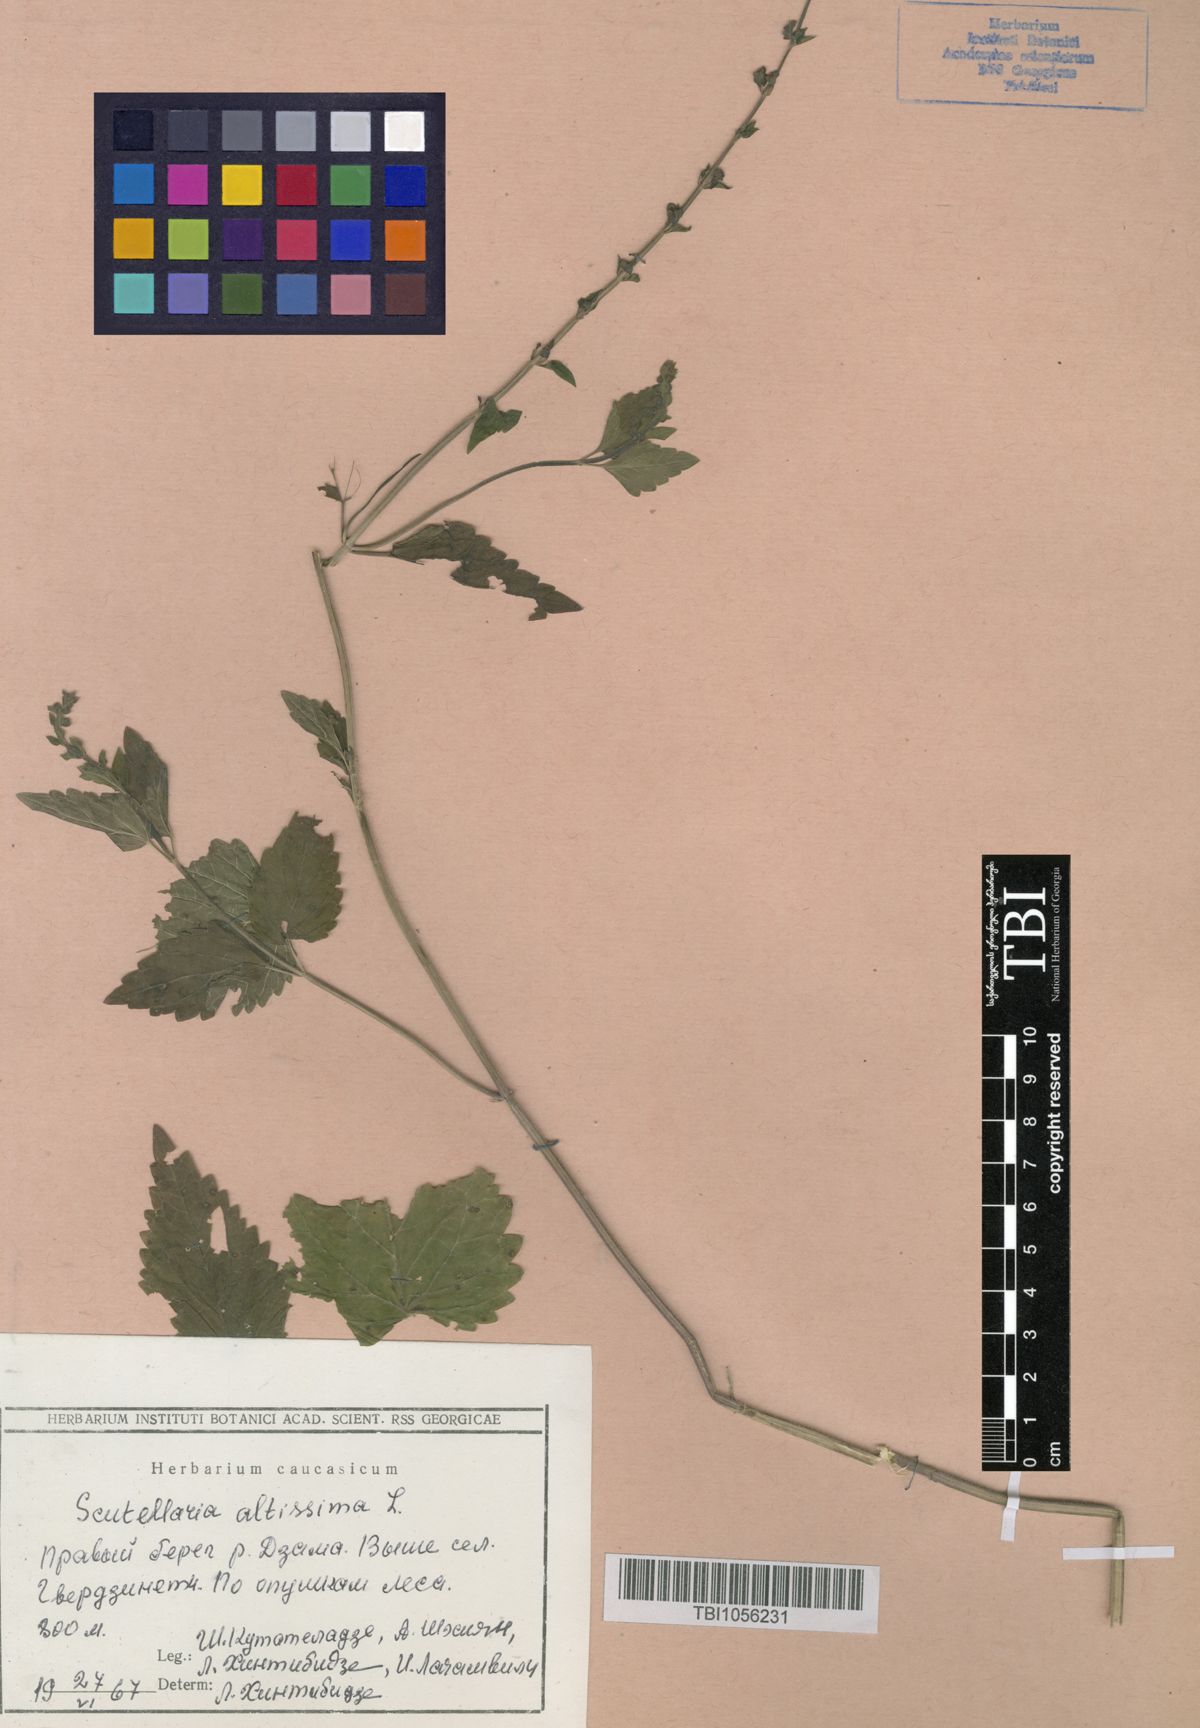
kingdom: Plantae
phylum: Tracheophyta
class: Magnoliopsida
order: Lamiales
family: Lamiaceae
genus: Scutellaria
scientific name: Scutellaria altissima
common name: Somerset skullcap
